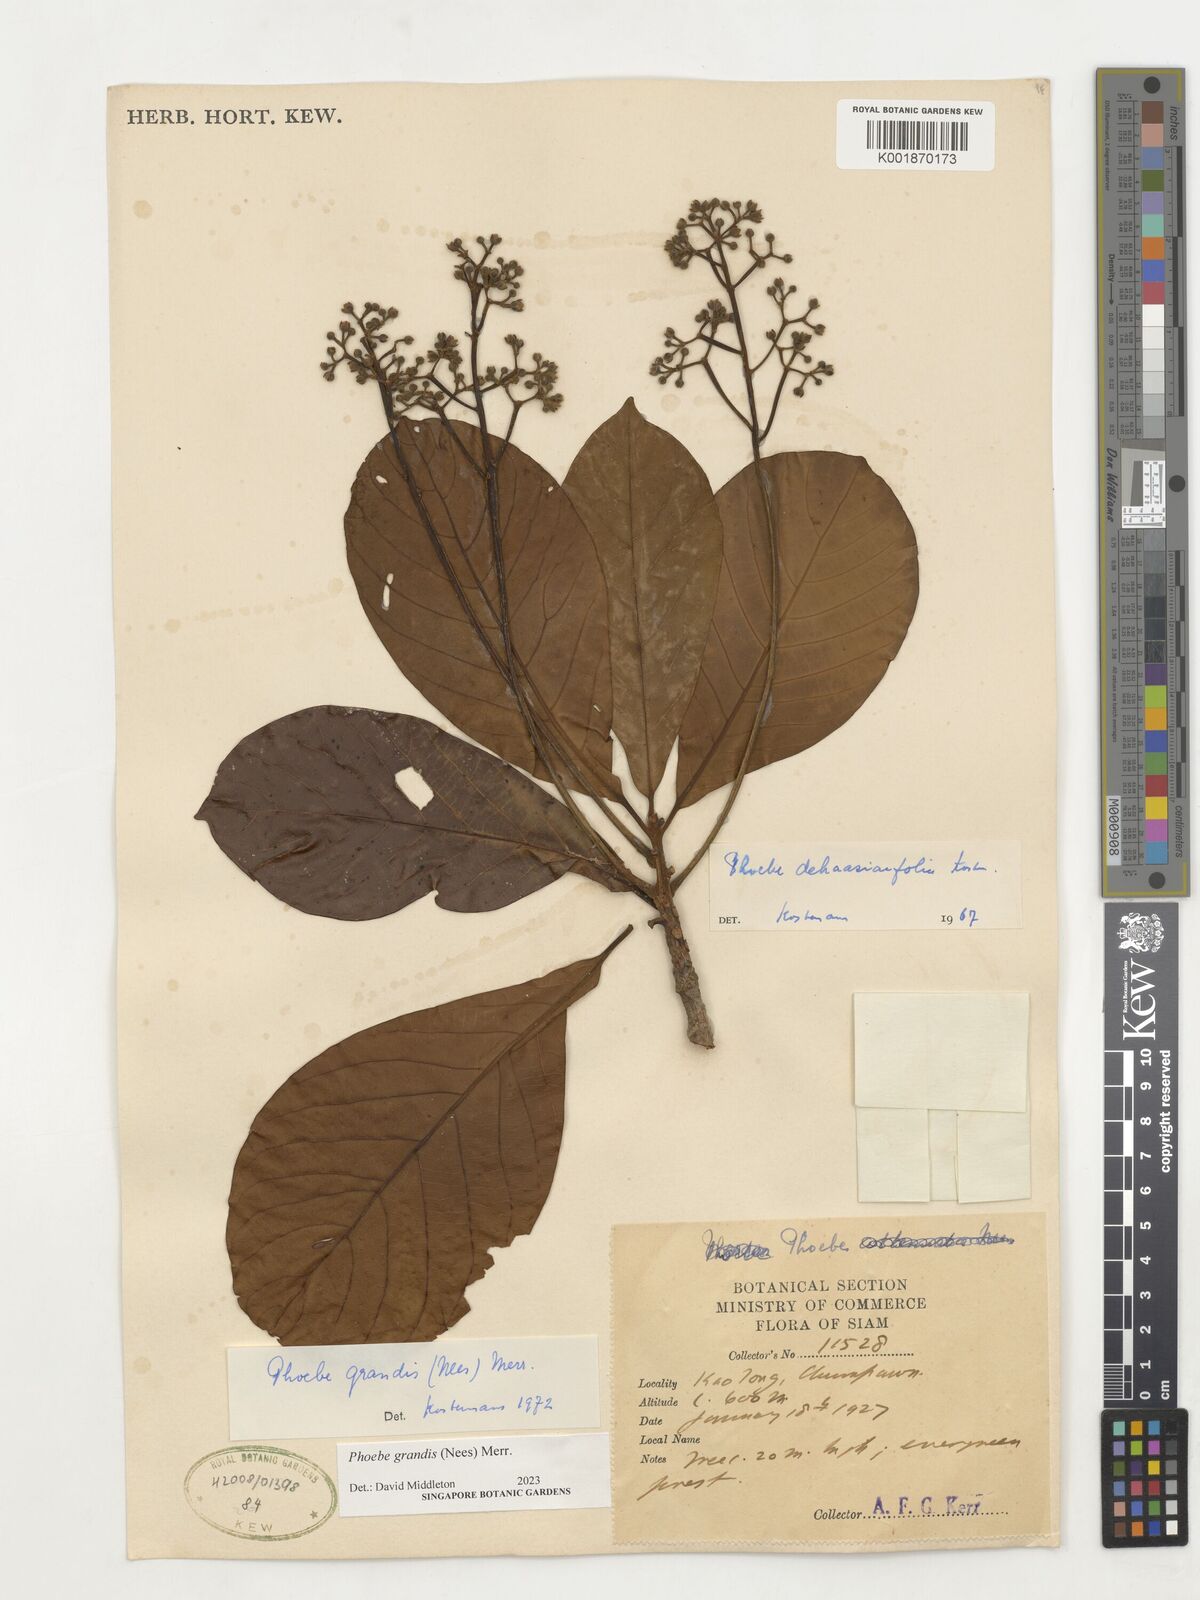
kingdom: Plantae
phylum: Tracheophyta
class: Magnoliopsida
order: Laurales
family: Lauraceae
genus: Phoebe
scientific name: Phoebe grandis
